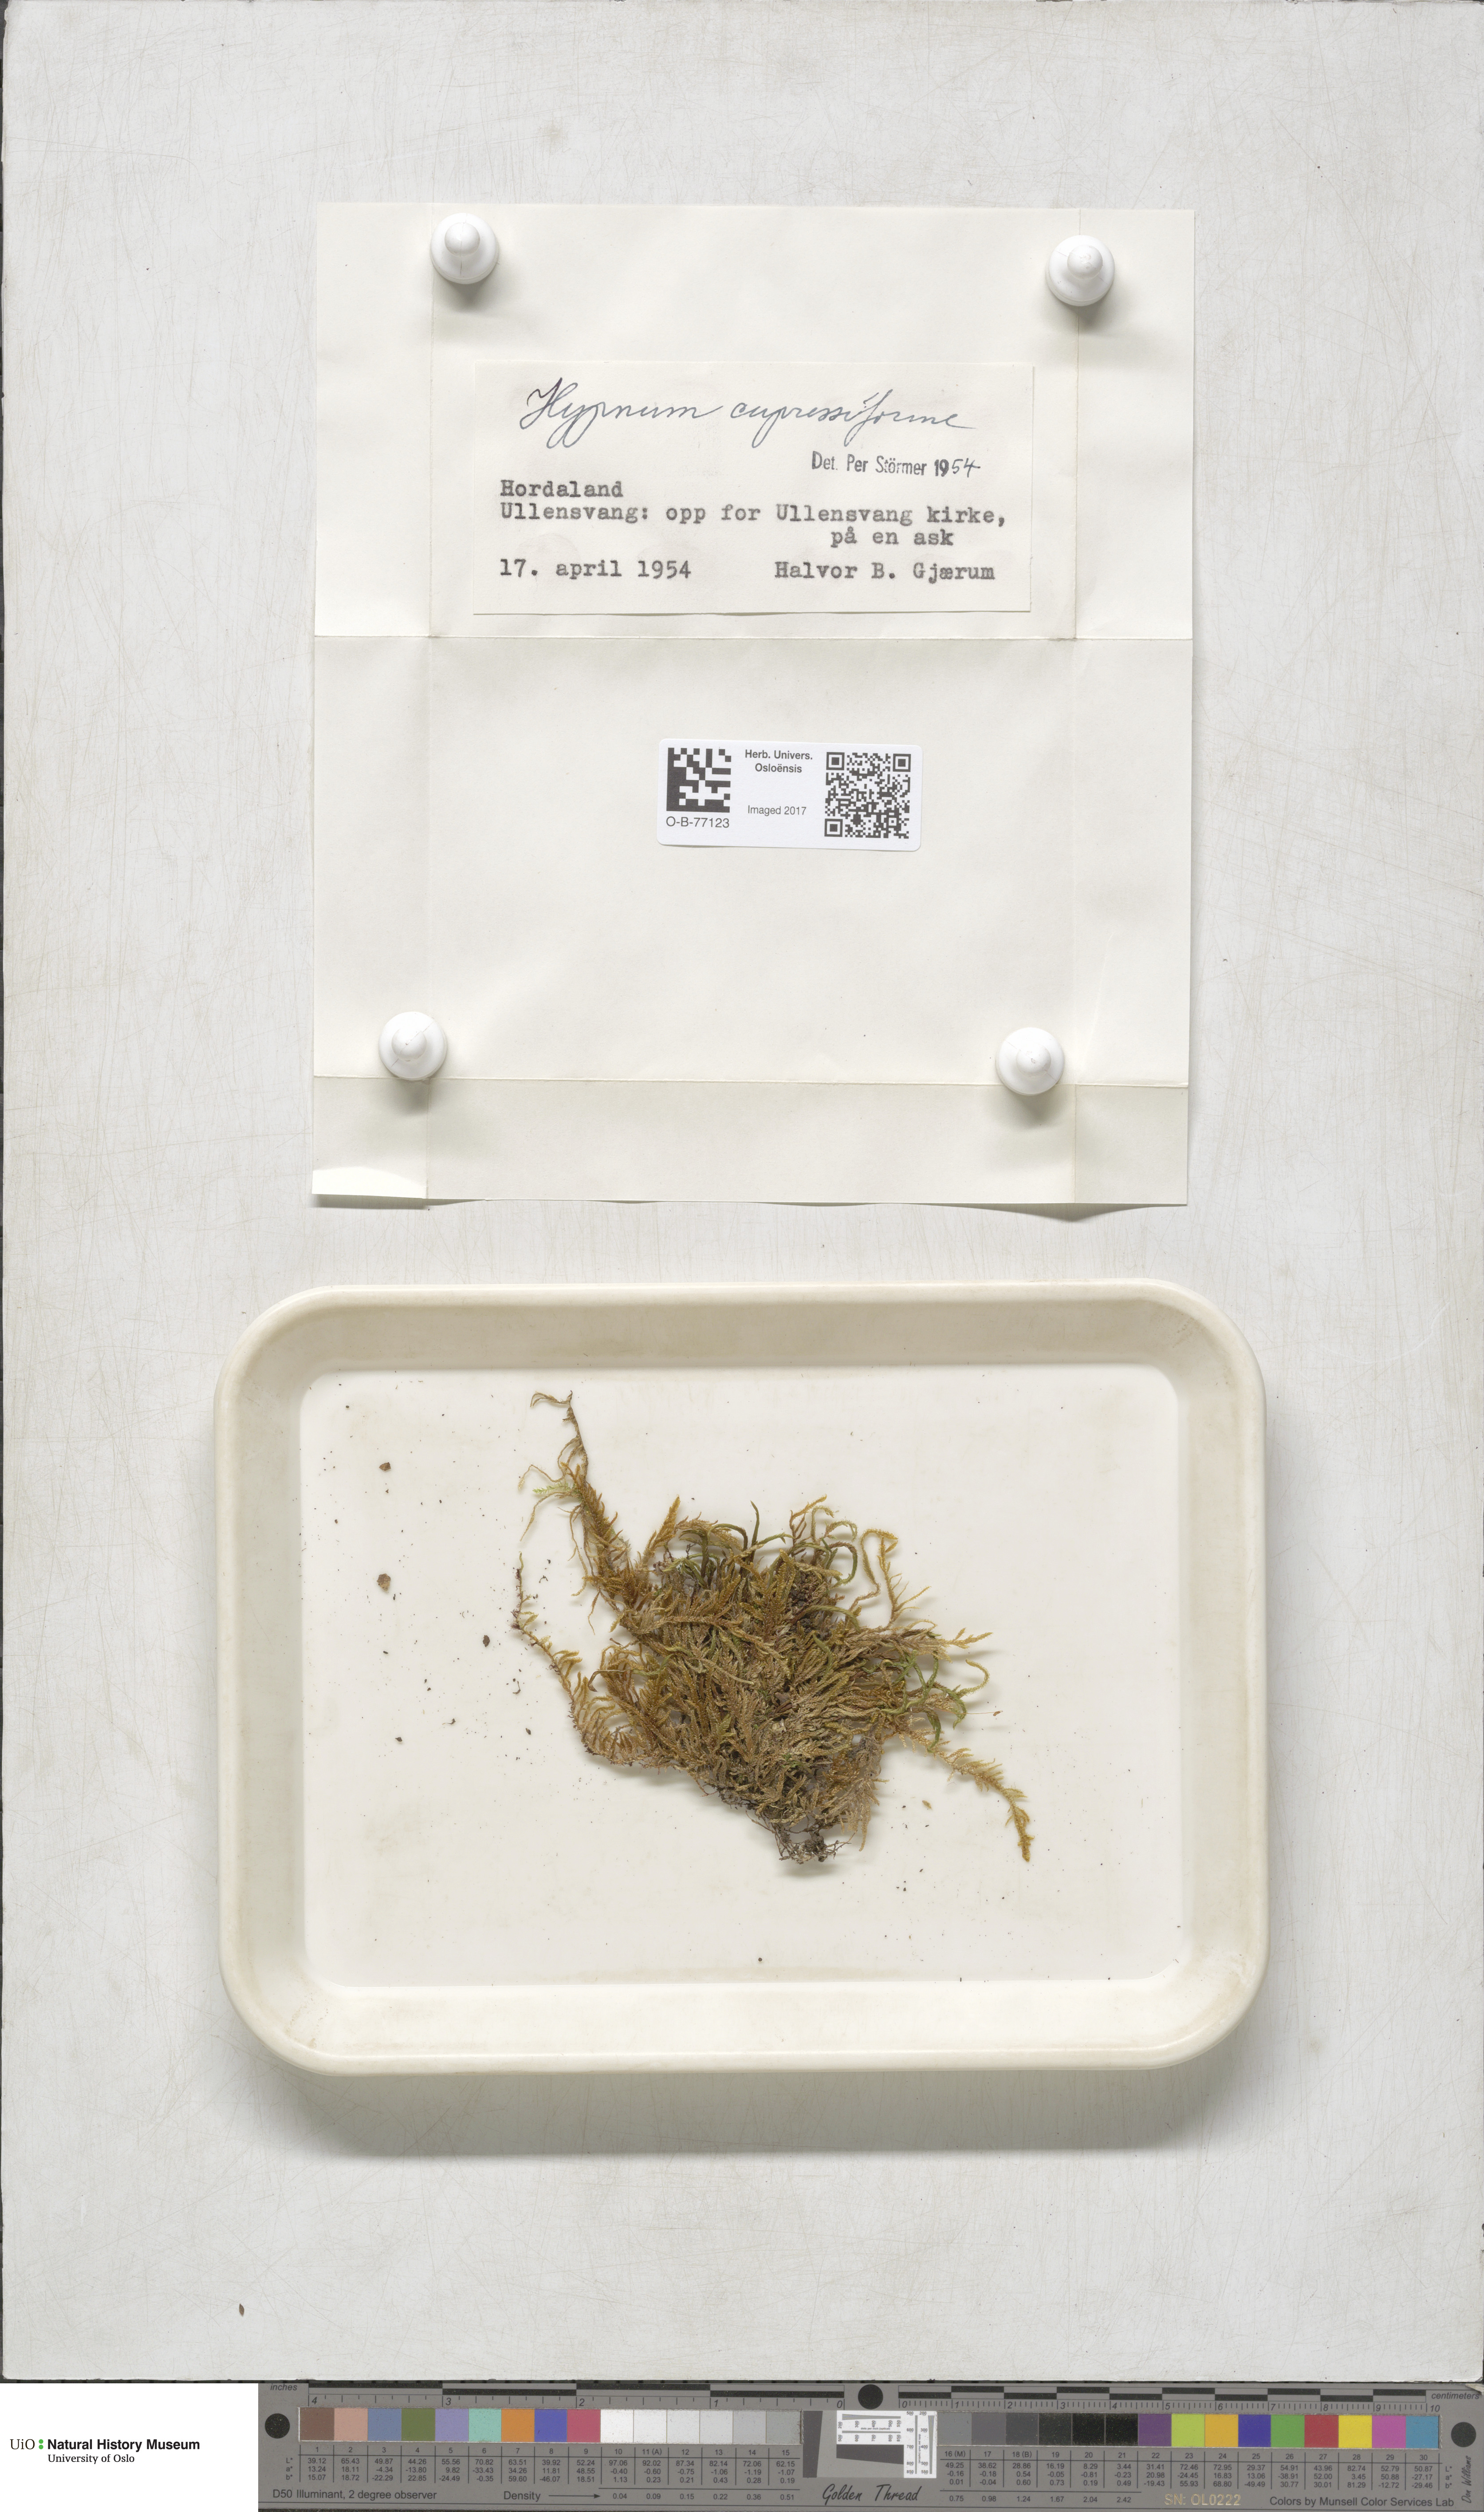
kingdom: Plantae
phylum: Bryophyta
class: Bryopsida
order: Hypnales
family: Hypnaceae
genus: Hypnum
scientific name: Hypnum cupressiforme
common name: Cypress-leaved plait-moss
